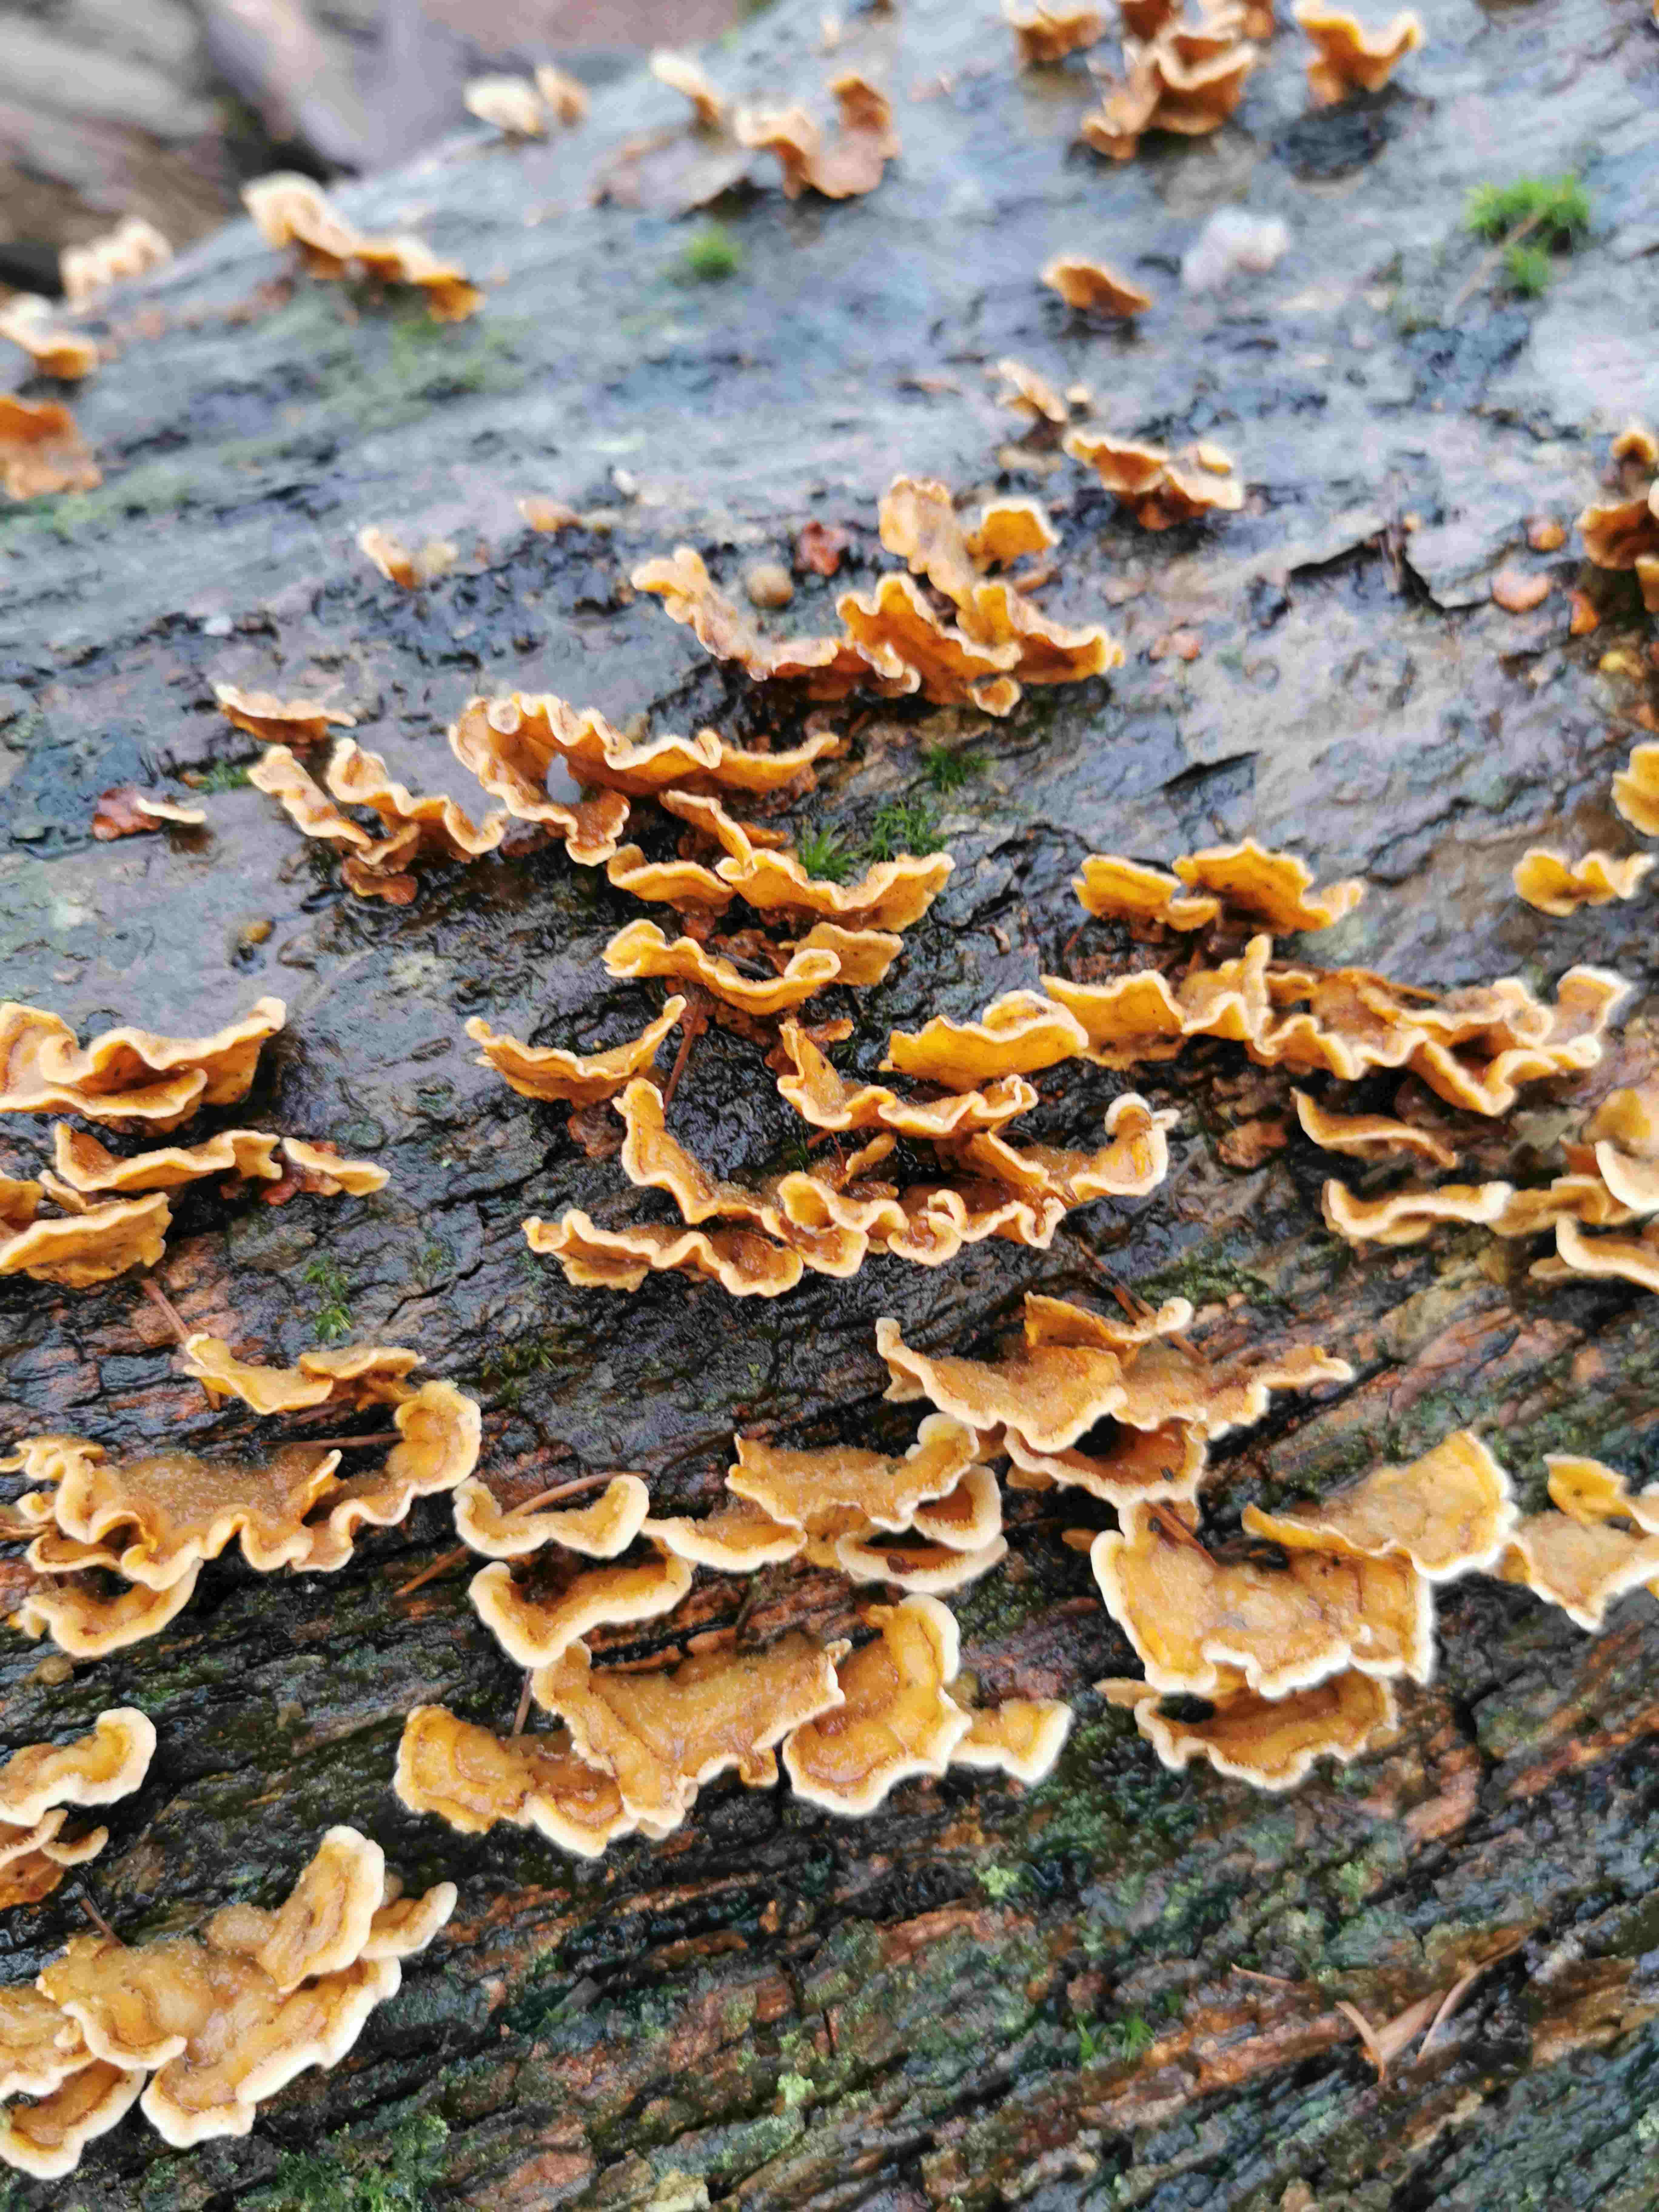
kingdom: Fungi
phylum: Basidiomycota
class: Agaricomycetes
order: Russulales
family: Stereaceae
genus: Stereum
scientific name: Stereum hirsutum
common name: håret lædersvamp
